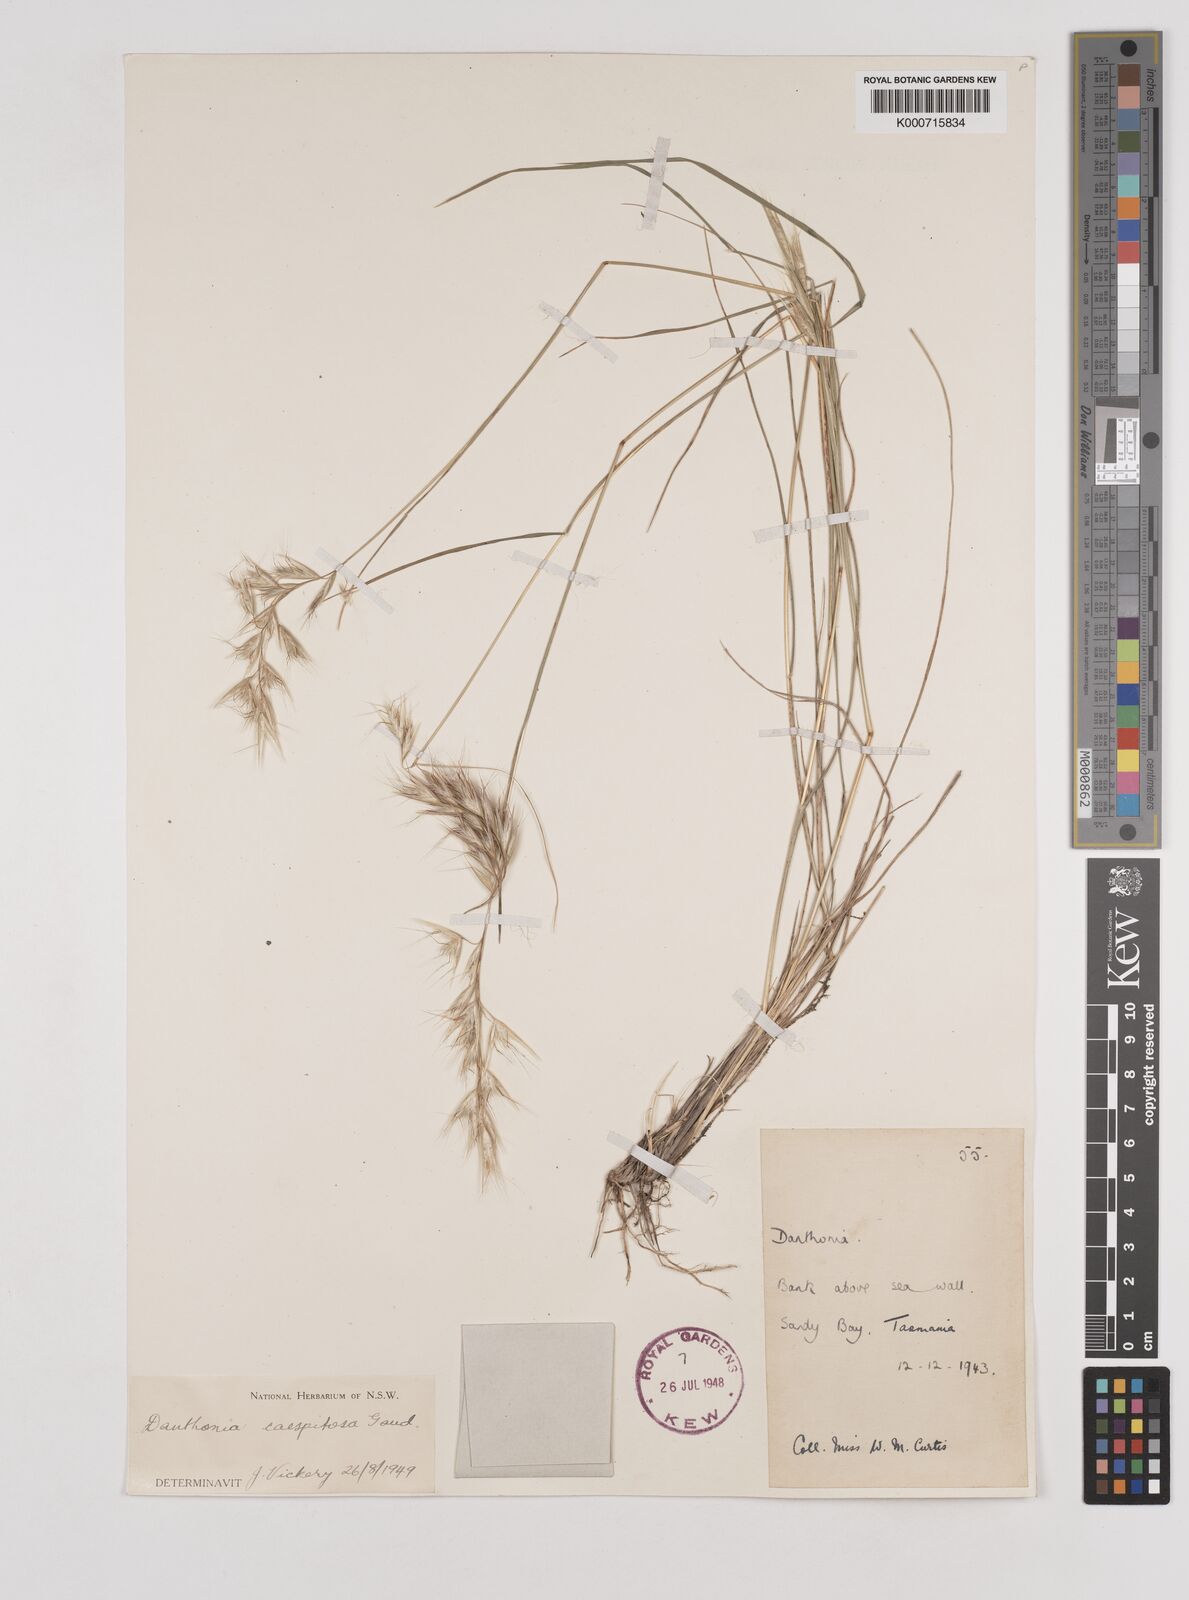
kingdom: Plantae
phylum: Tracheophyta
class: Liliopsida
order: Poales
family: Poaceae
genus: Rytidosperma
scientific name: Rytidosperma caespitosum
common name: Tufted wallaby grass
